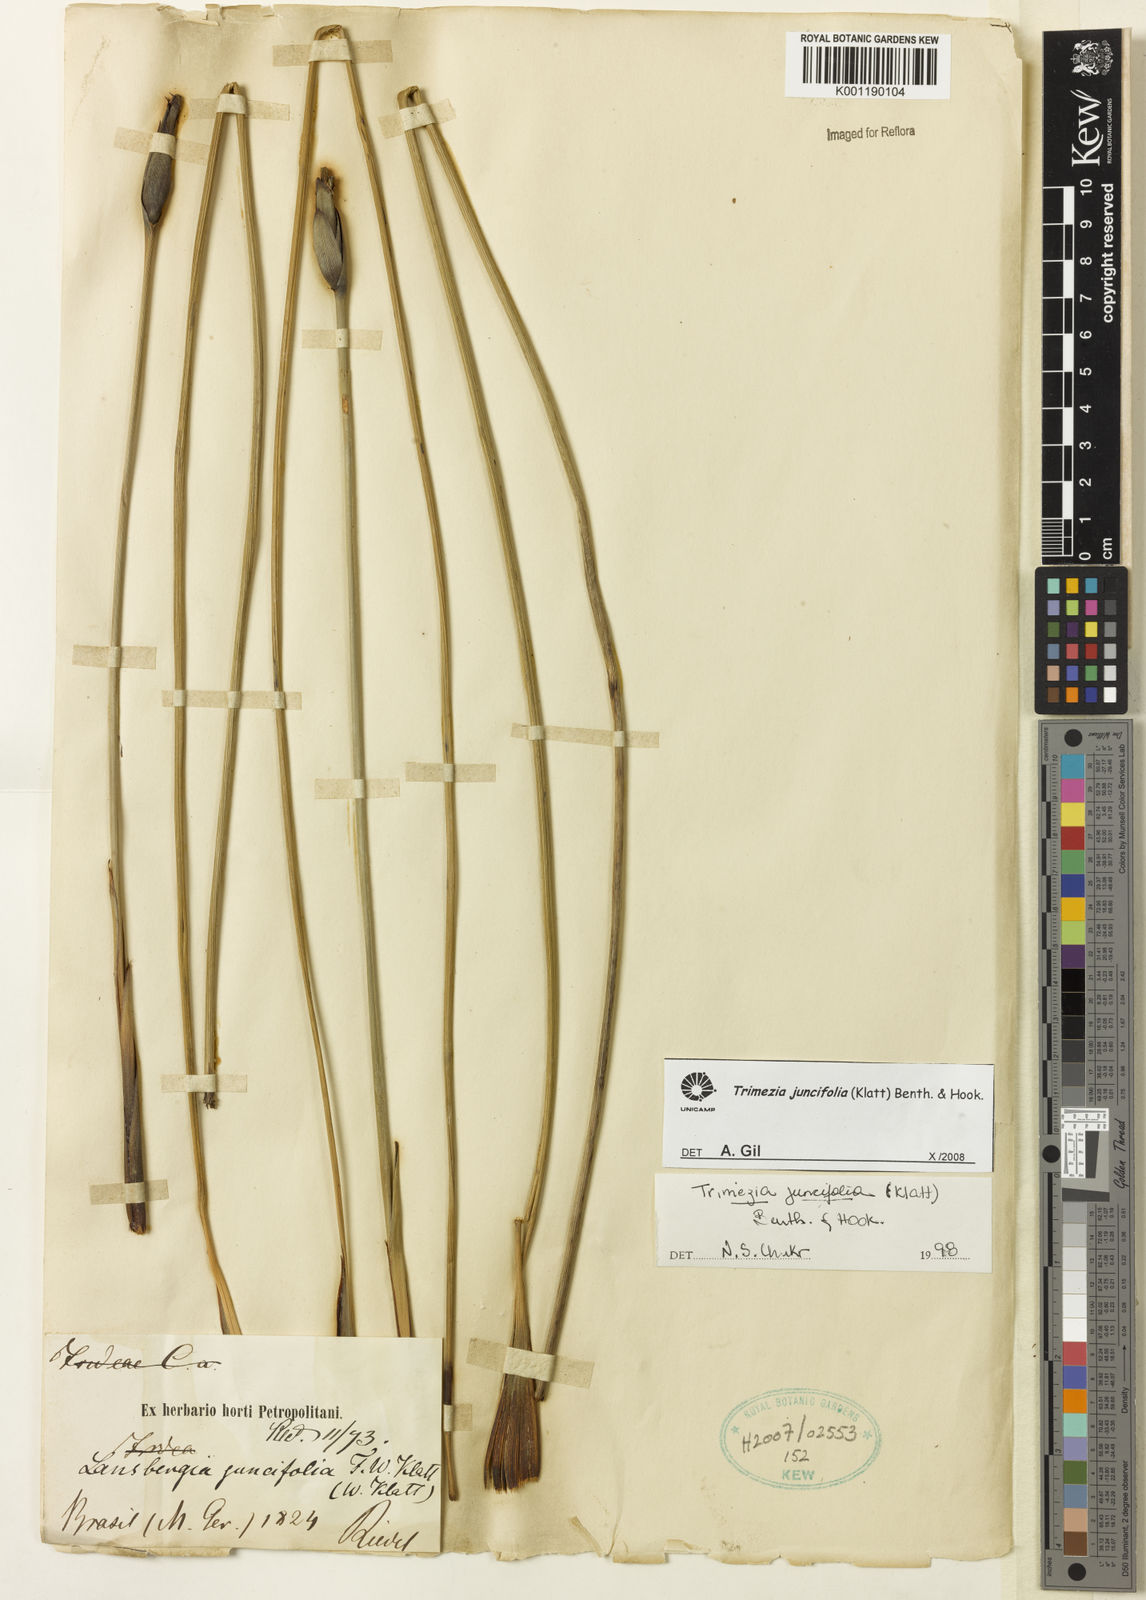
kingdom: Plantae
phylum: Tracheophyta
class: Liliopsida
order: Asparagales
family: Iridaceae
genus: Trimezia
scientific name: Trimezia juncifolia
